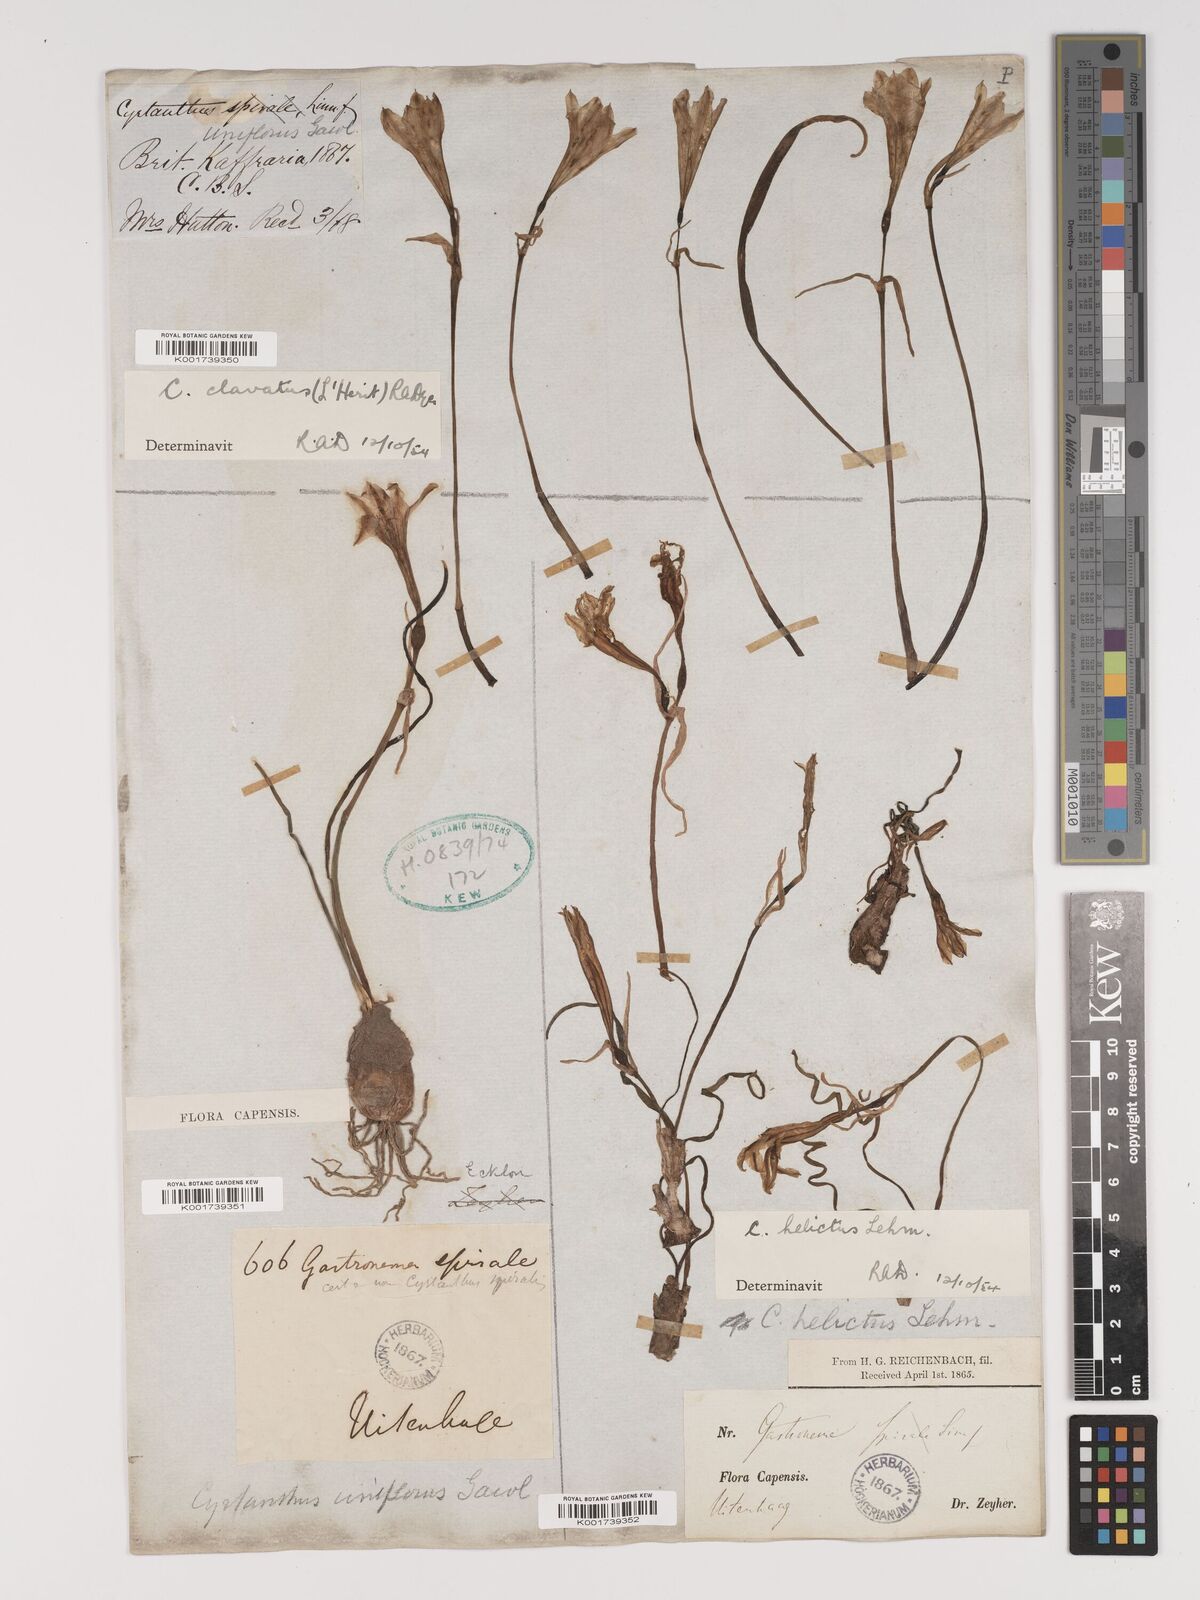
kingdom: Plantae
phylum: Tracheophyta
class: Liliopsida
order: Asparagales
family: Amaryllidaceae
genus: Cyrtanthus
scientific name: Cyrtanthus clavatus
